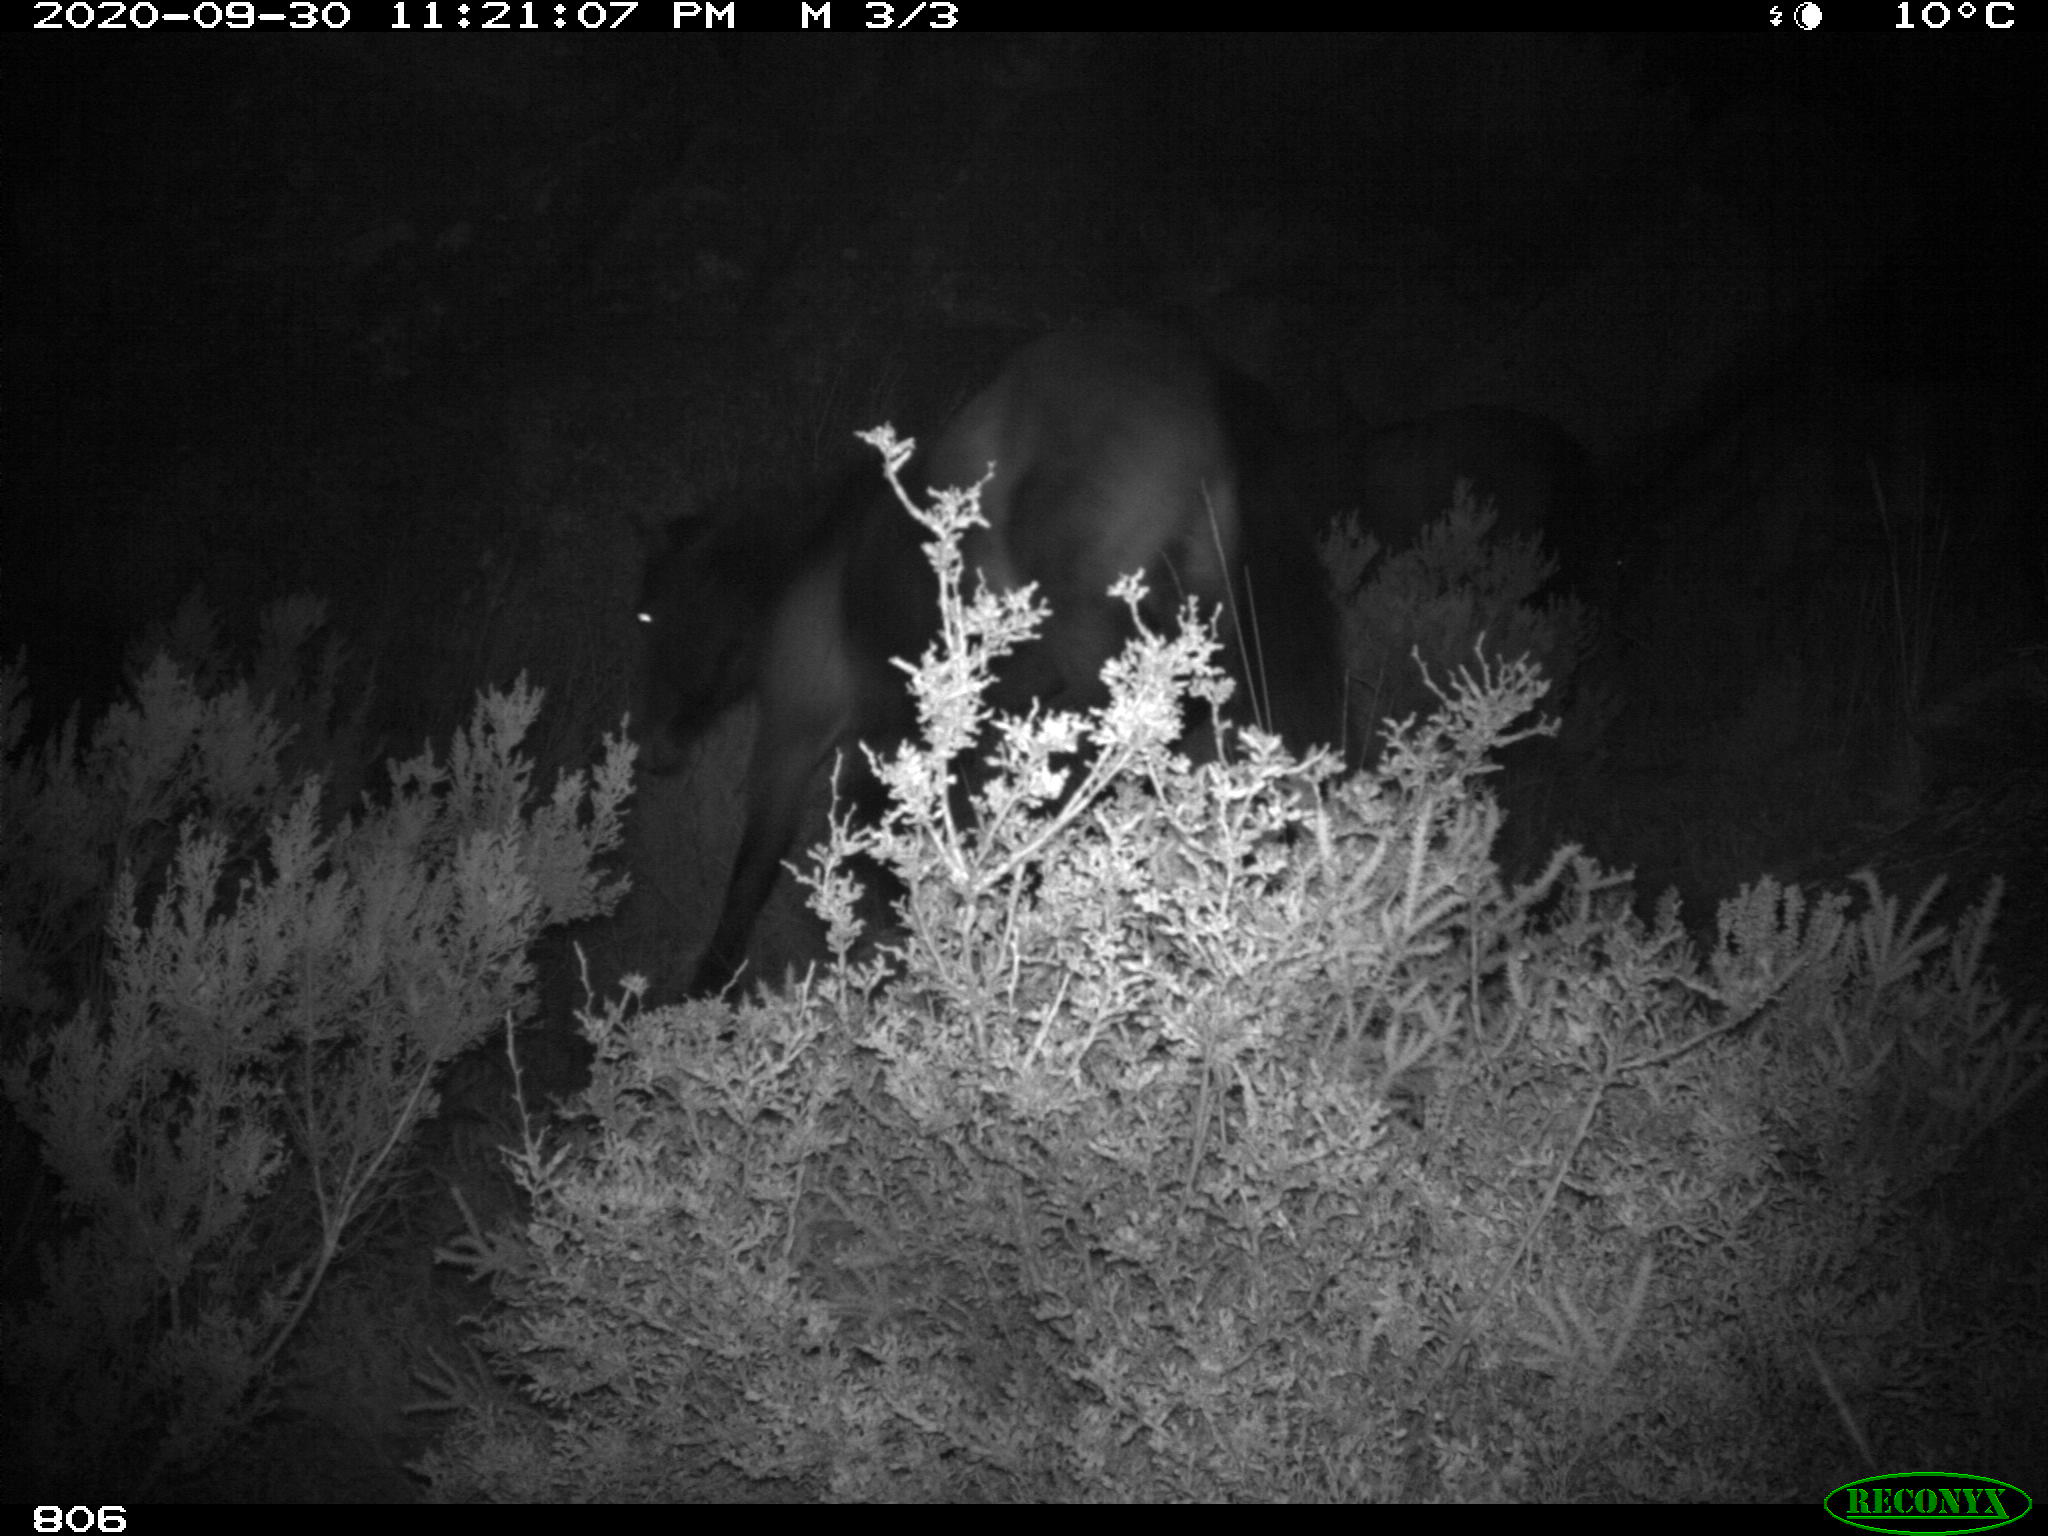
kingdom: Animalia
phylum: Chordata
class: Mammalia
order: Perissodactyla
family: Equidae
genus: Equus
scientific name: Equus caballus
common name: Horse
